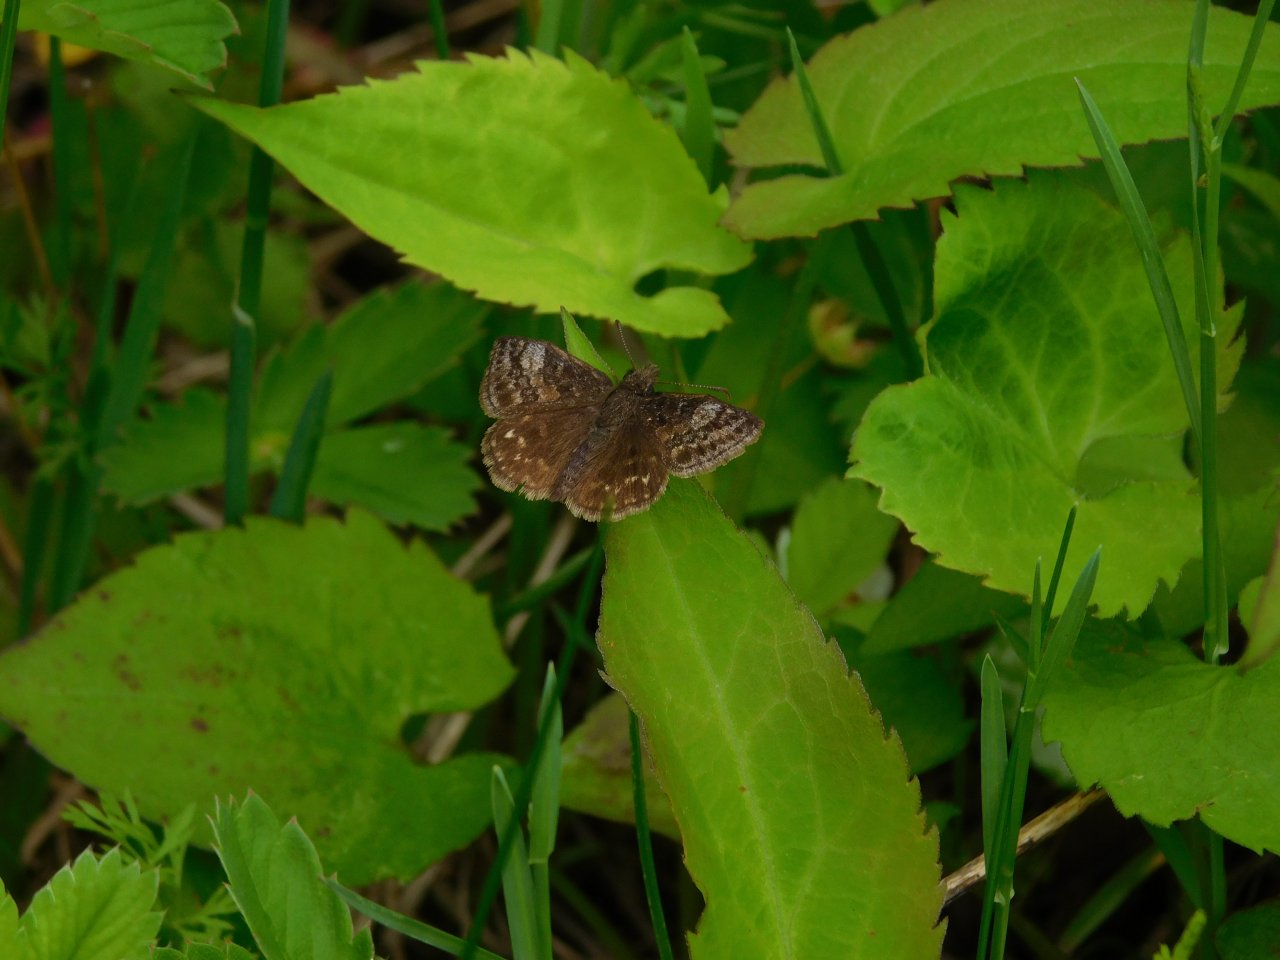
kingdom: Animalia
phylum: Arthropoda
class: Insecta
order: Lepidoptera
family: Hesperiidae
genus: Erynnis
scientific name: Erynnis icelus
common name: Dreamy Duskywing
